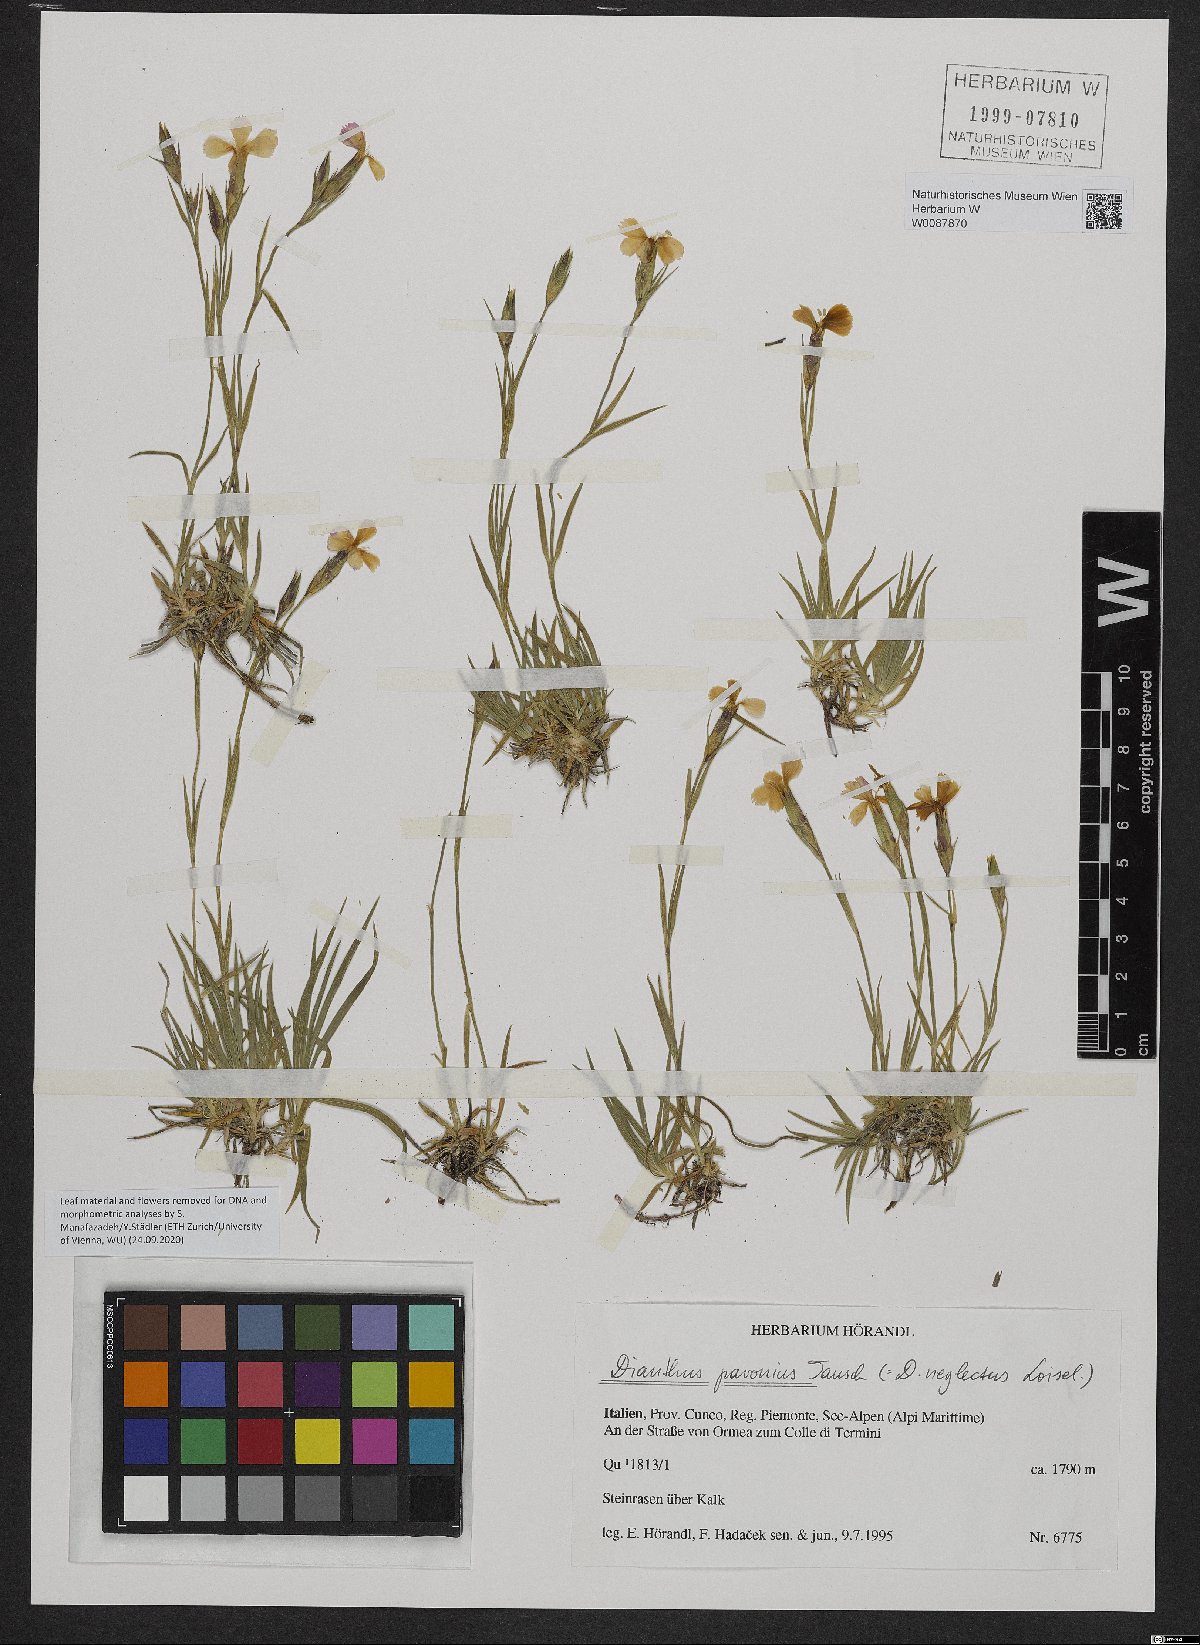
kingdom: Plantae
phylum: Tracheophyta
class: Magnoliopsida
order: Caryophyllales
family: Caryophyllaceae
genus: Dianthus
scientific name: Dianthus pavonius
